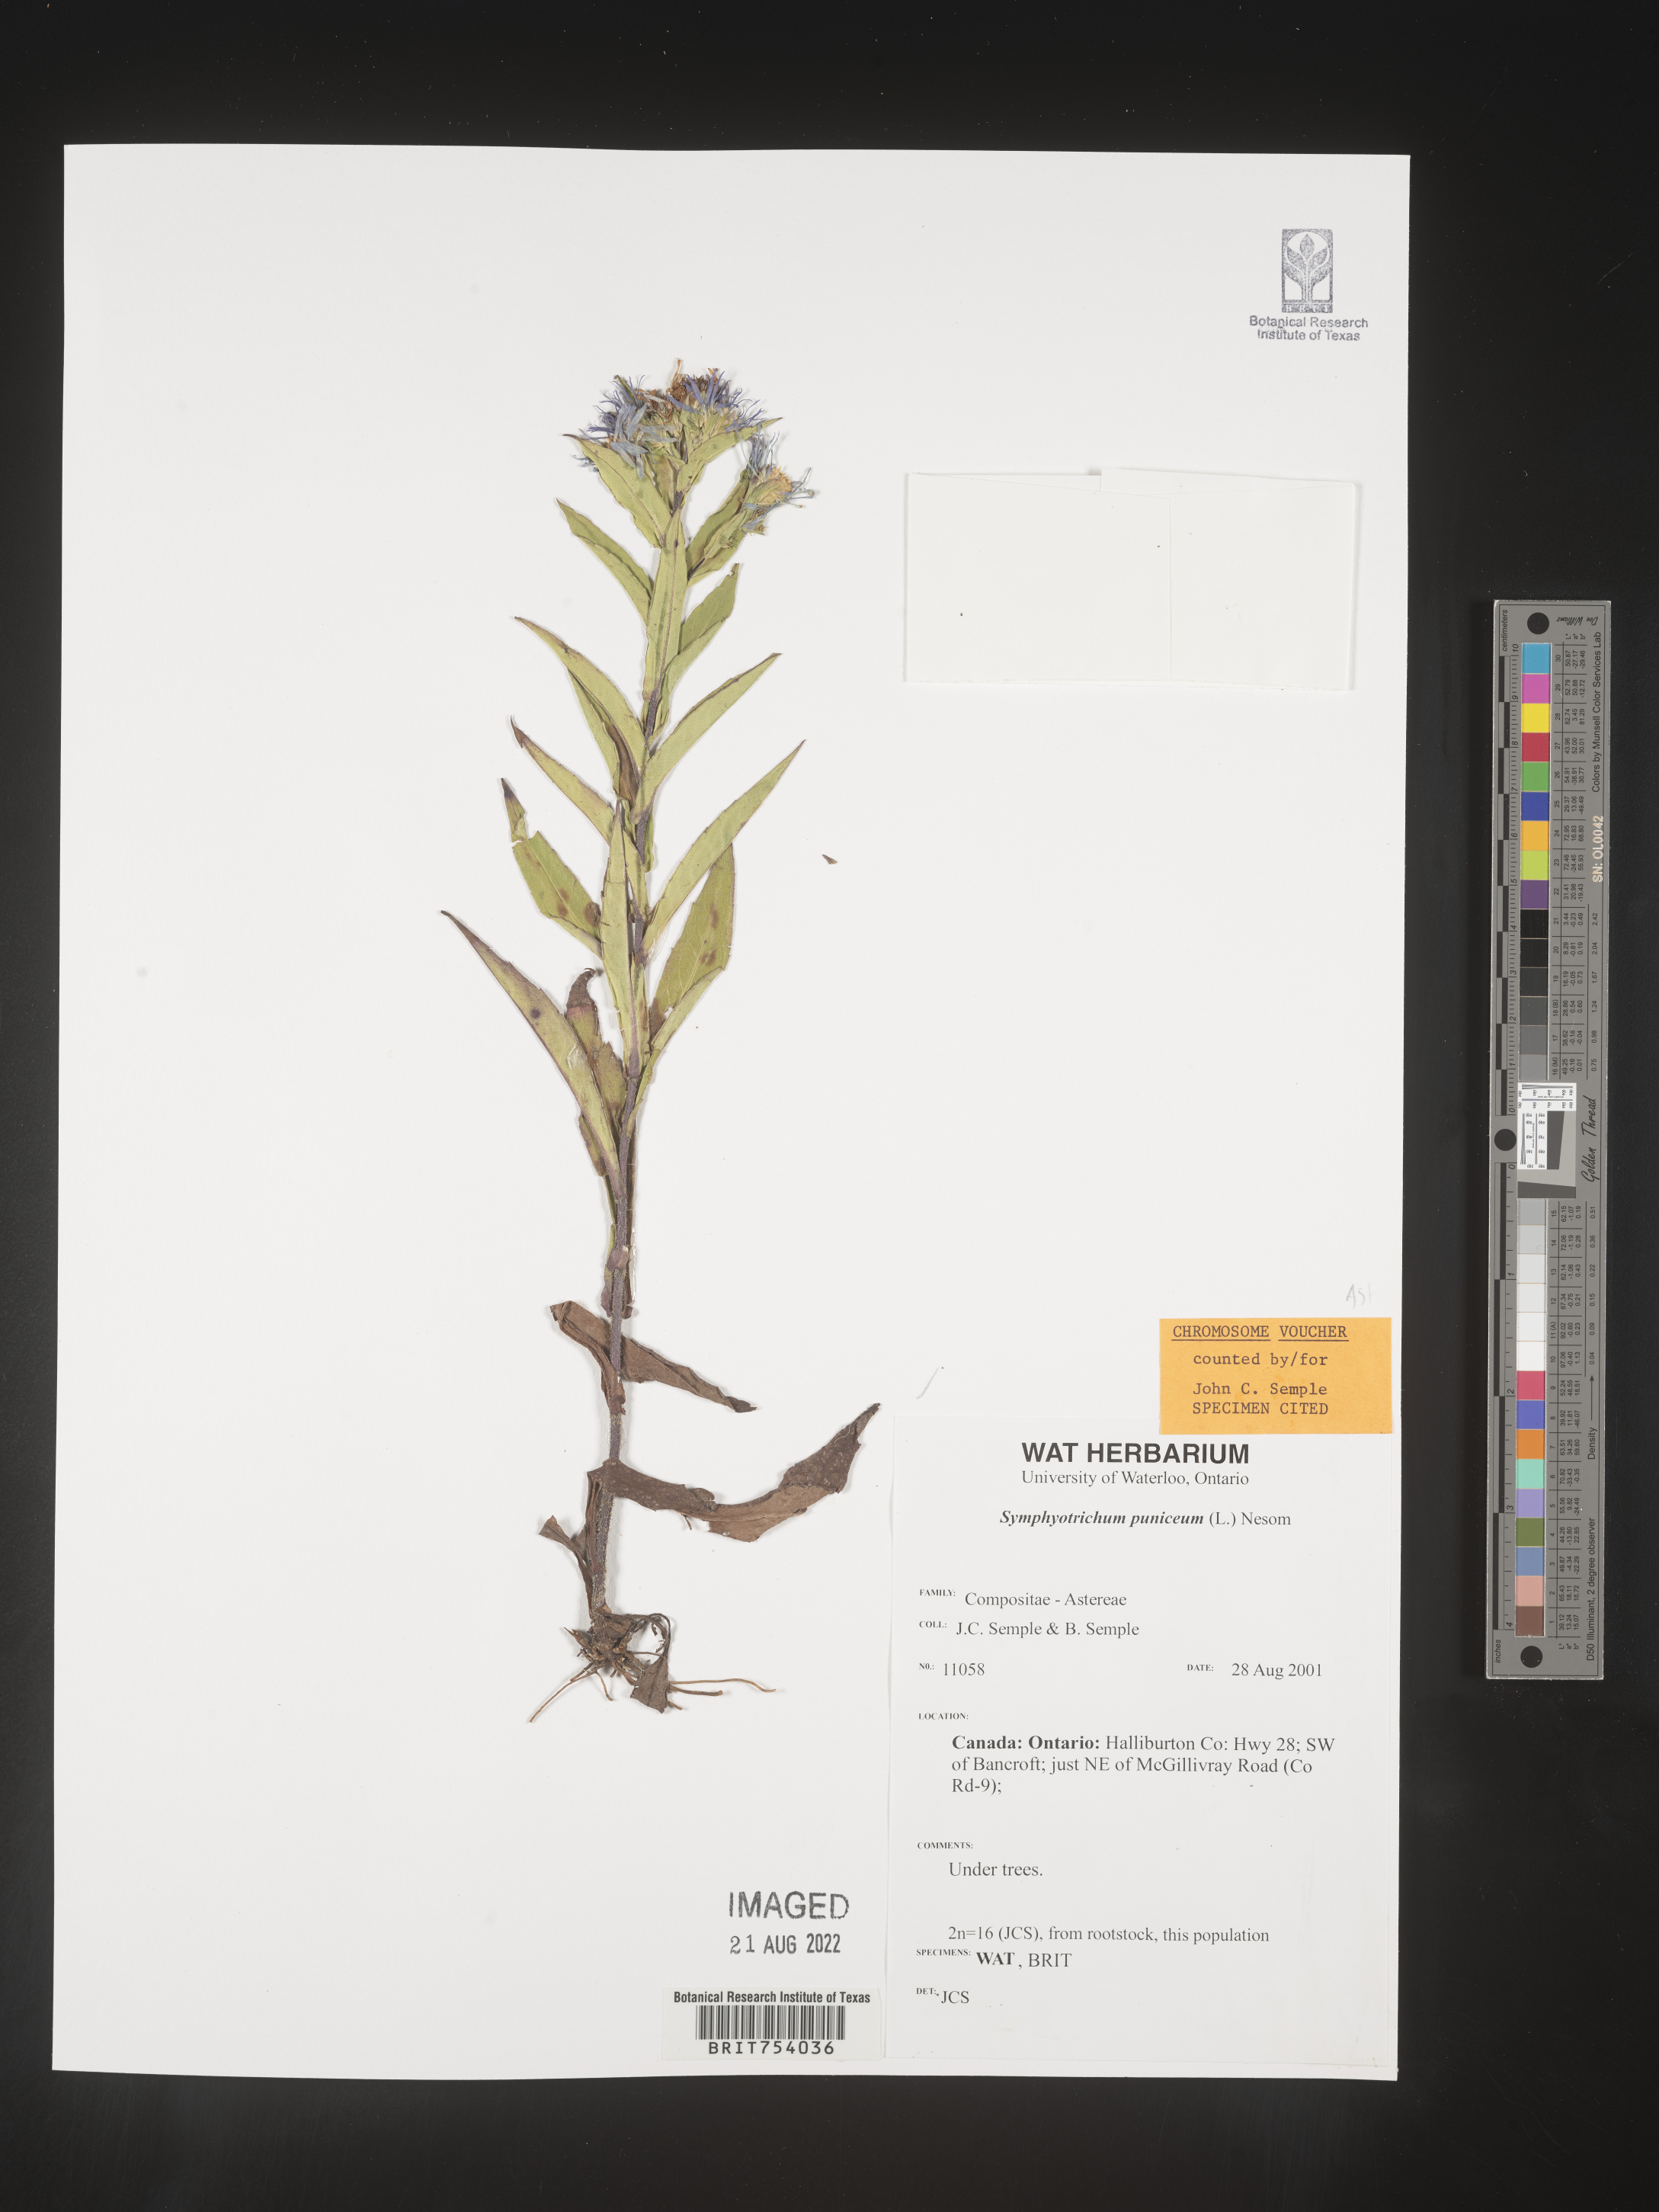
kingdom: Plantae
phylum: Tracheophyta
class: Magnoliopsida
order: Asterales
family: Asteraceae
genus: Symphyotrichum
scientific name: Symphyotrichum puniceum
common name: Bog aster
